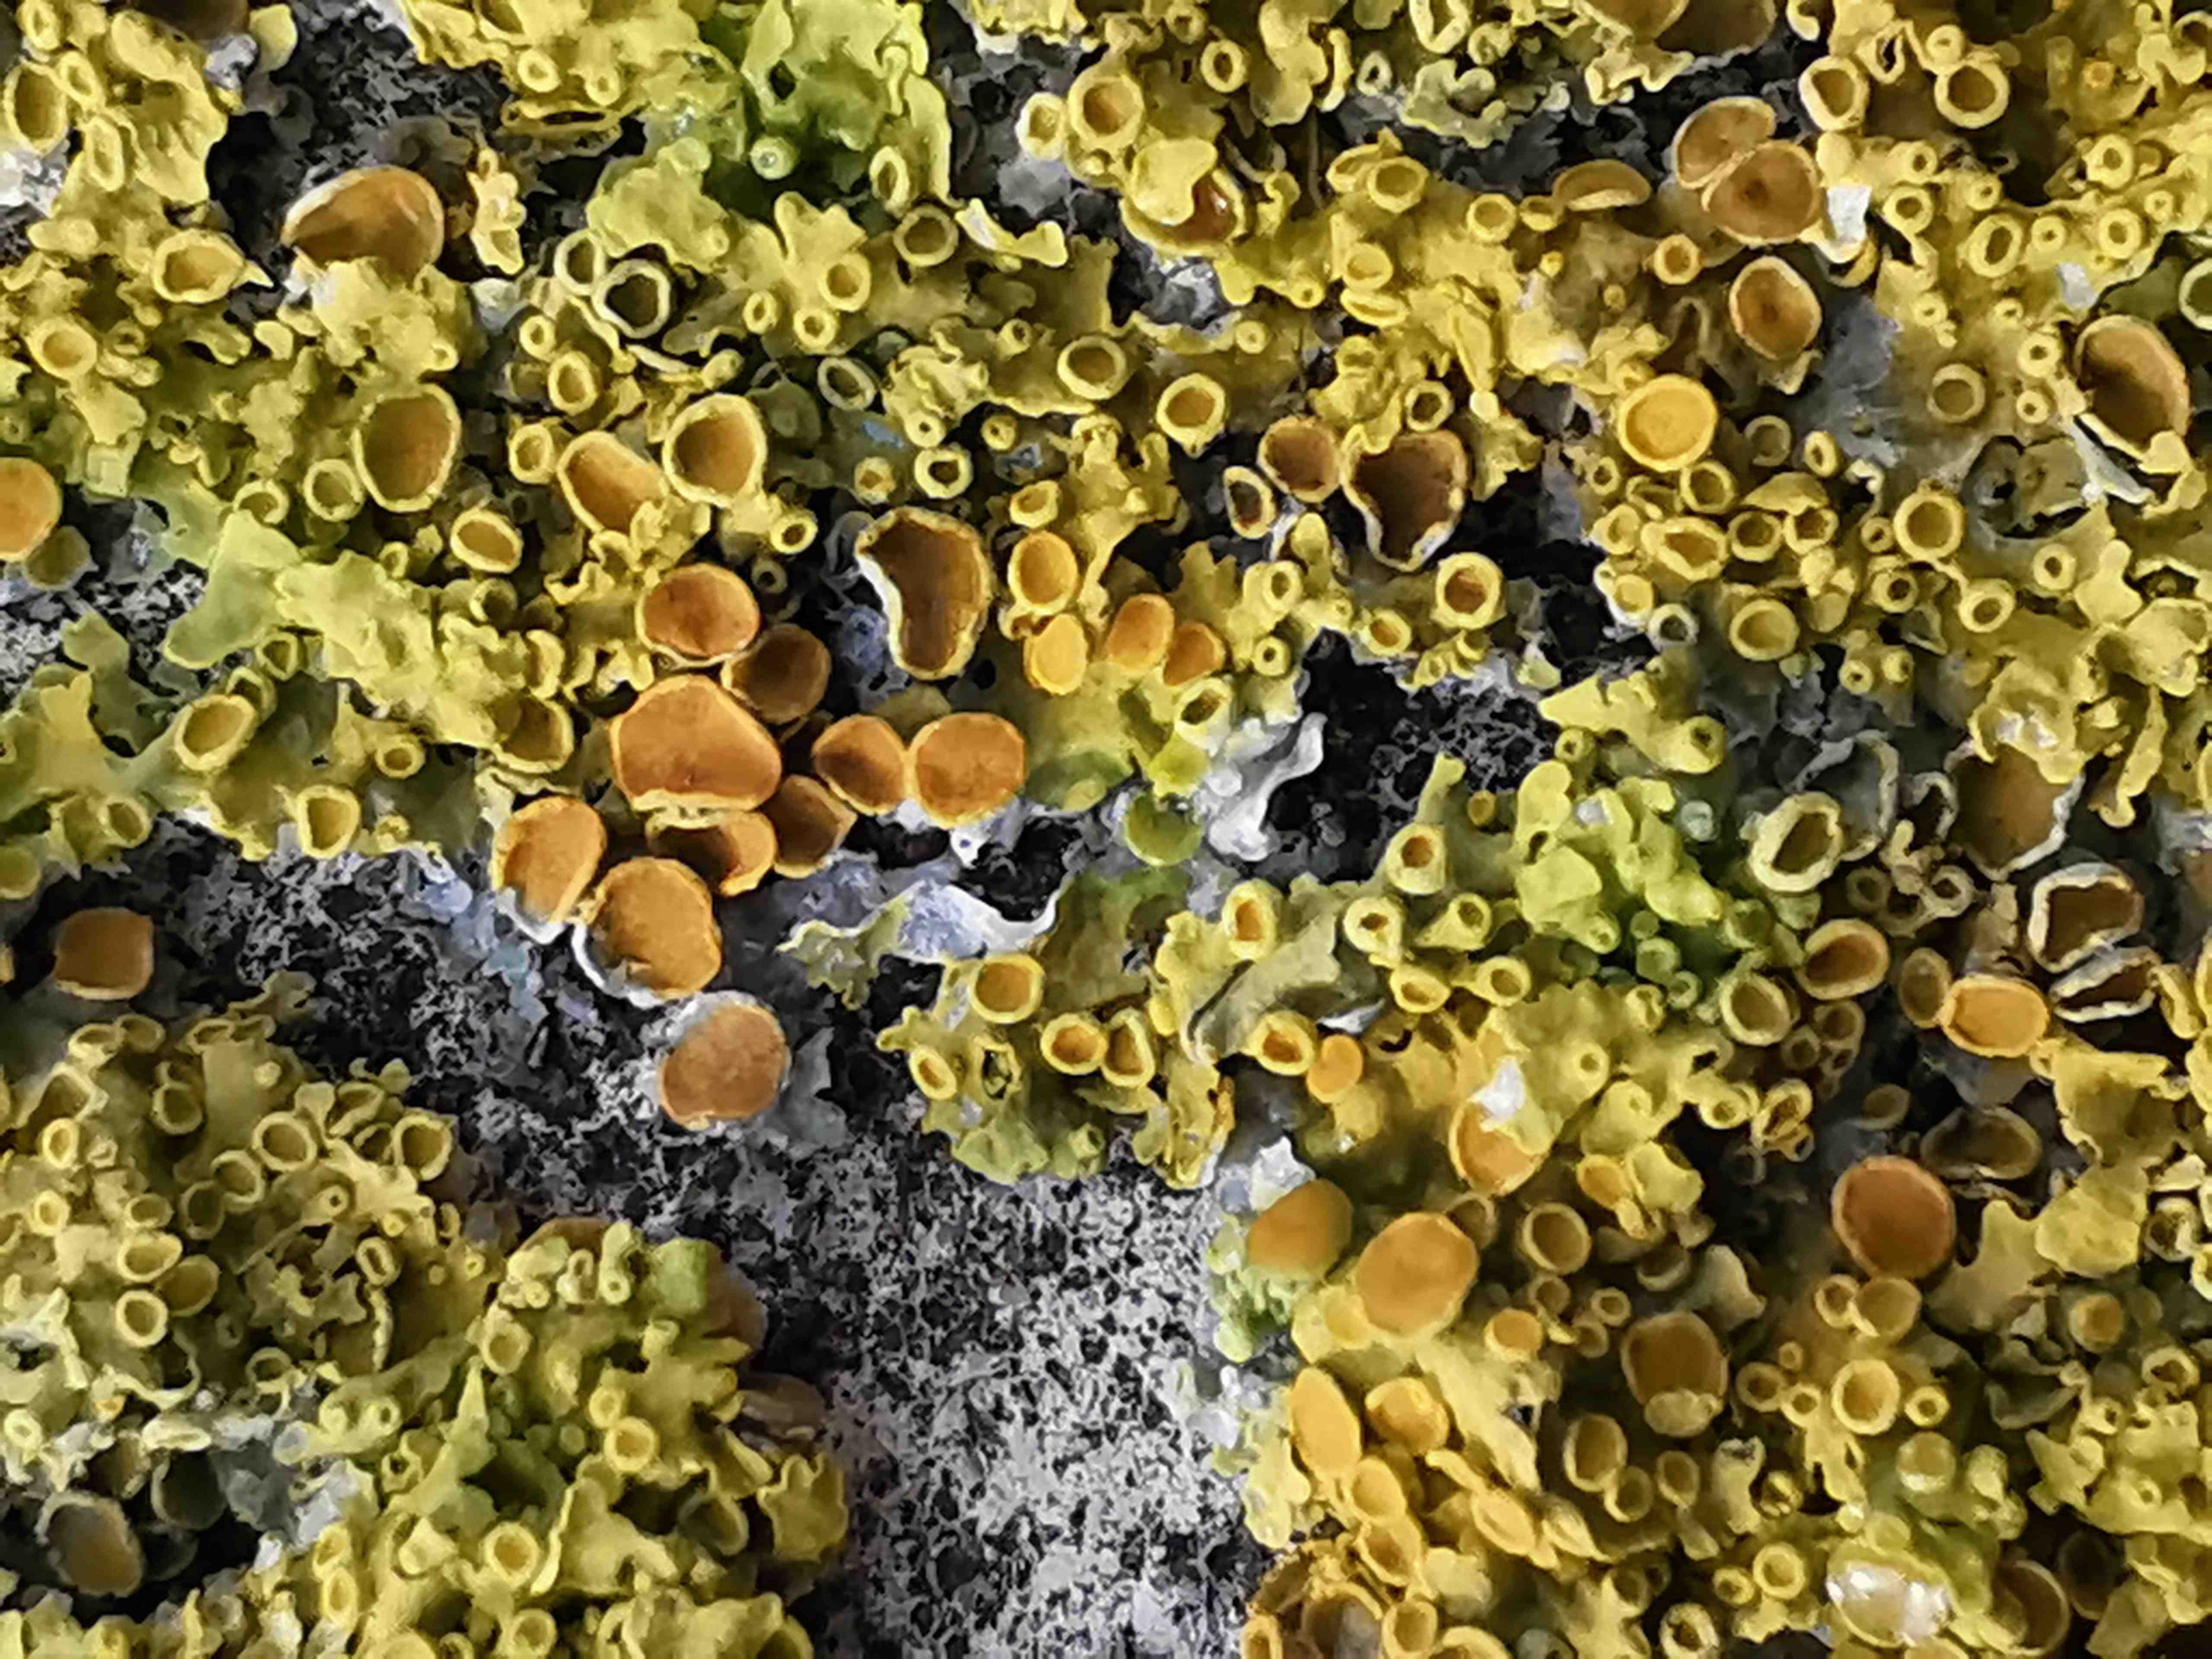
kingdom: Fungi
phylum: Ascomycota
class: Lecanoromycetes
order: Teloschistales
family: Teloschistaceae
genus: Xanthoria
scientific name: Xanthoria parietina
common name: almindelig væggelav
